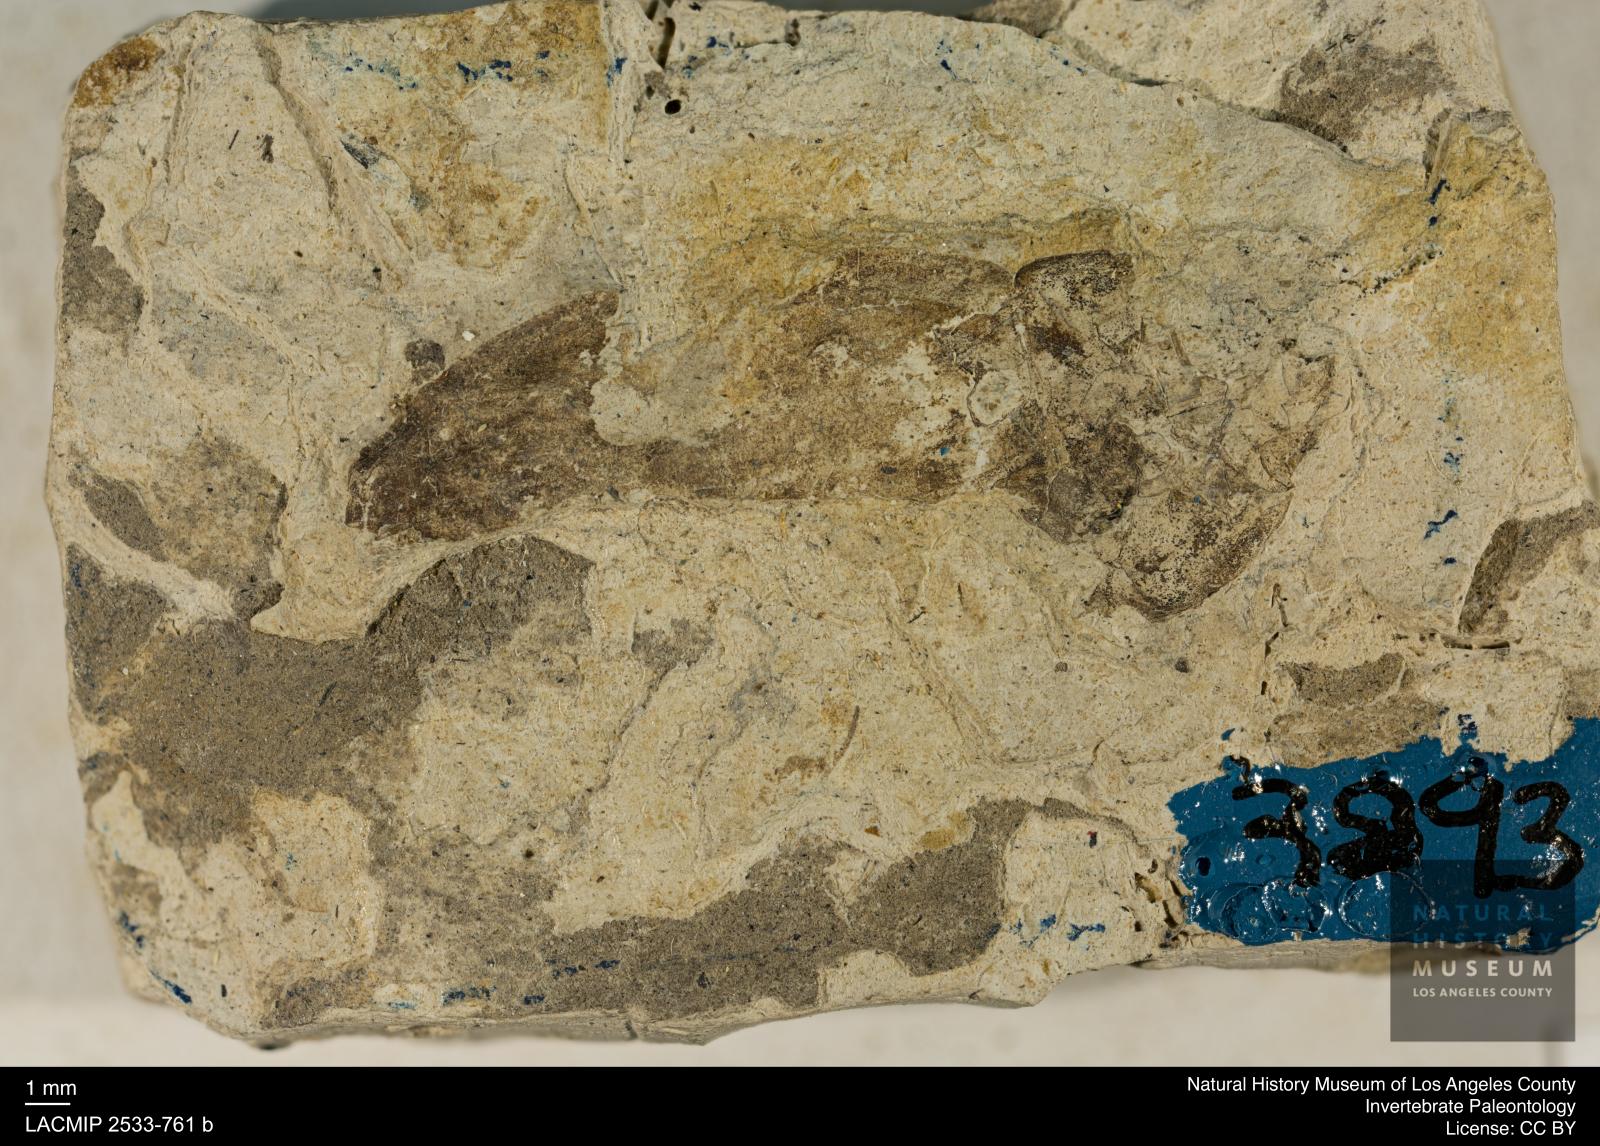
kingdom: Animalia
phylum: Arthropoda
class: Insecta
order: Coleoptera
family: Hydrophilidae
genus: Hydrobiomorpha
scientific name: Hydrobiomorpha fraterna
